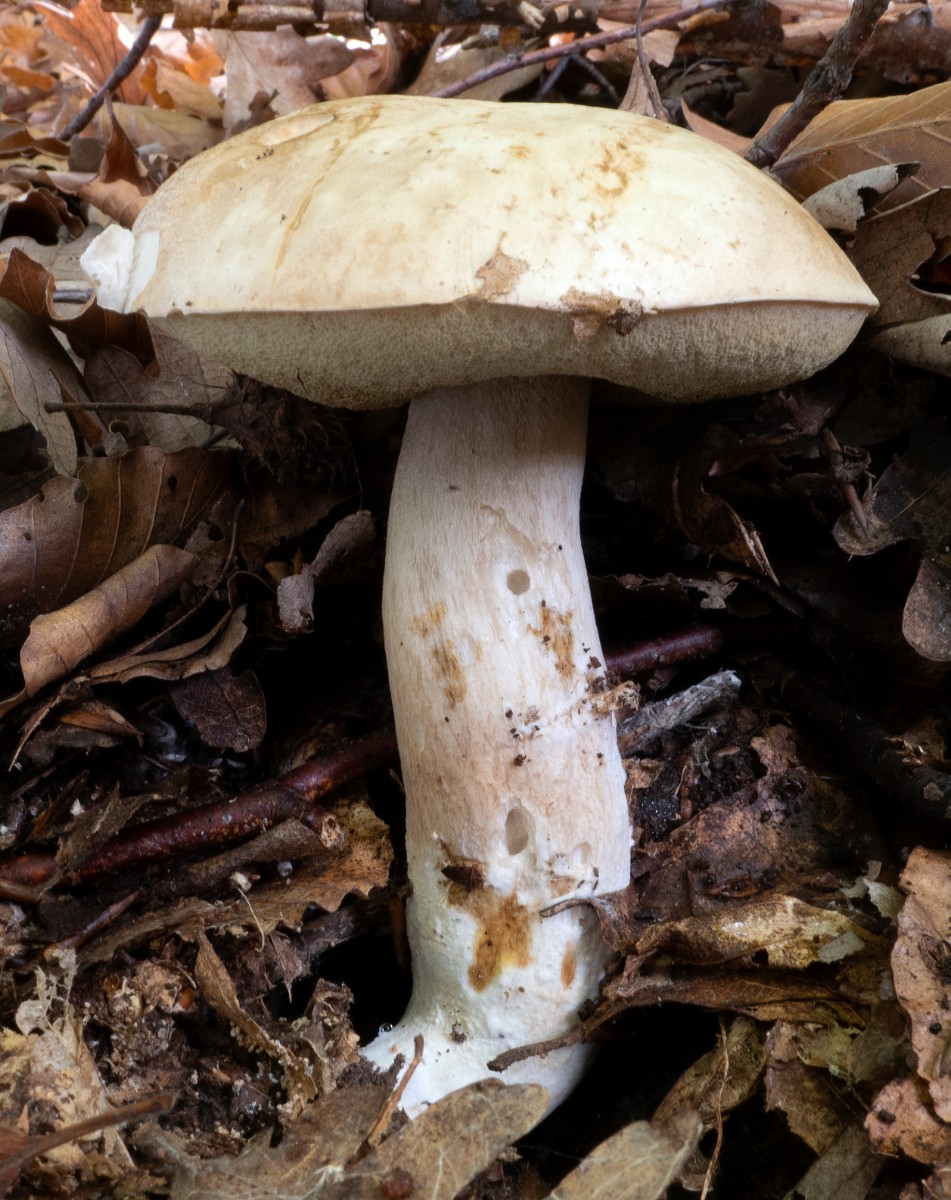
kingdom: Fungi
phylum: Basidiomycota
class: Agaricomycetes
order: Boletales
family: Boletaceae
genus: Boletus
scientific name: Boletus edulis
